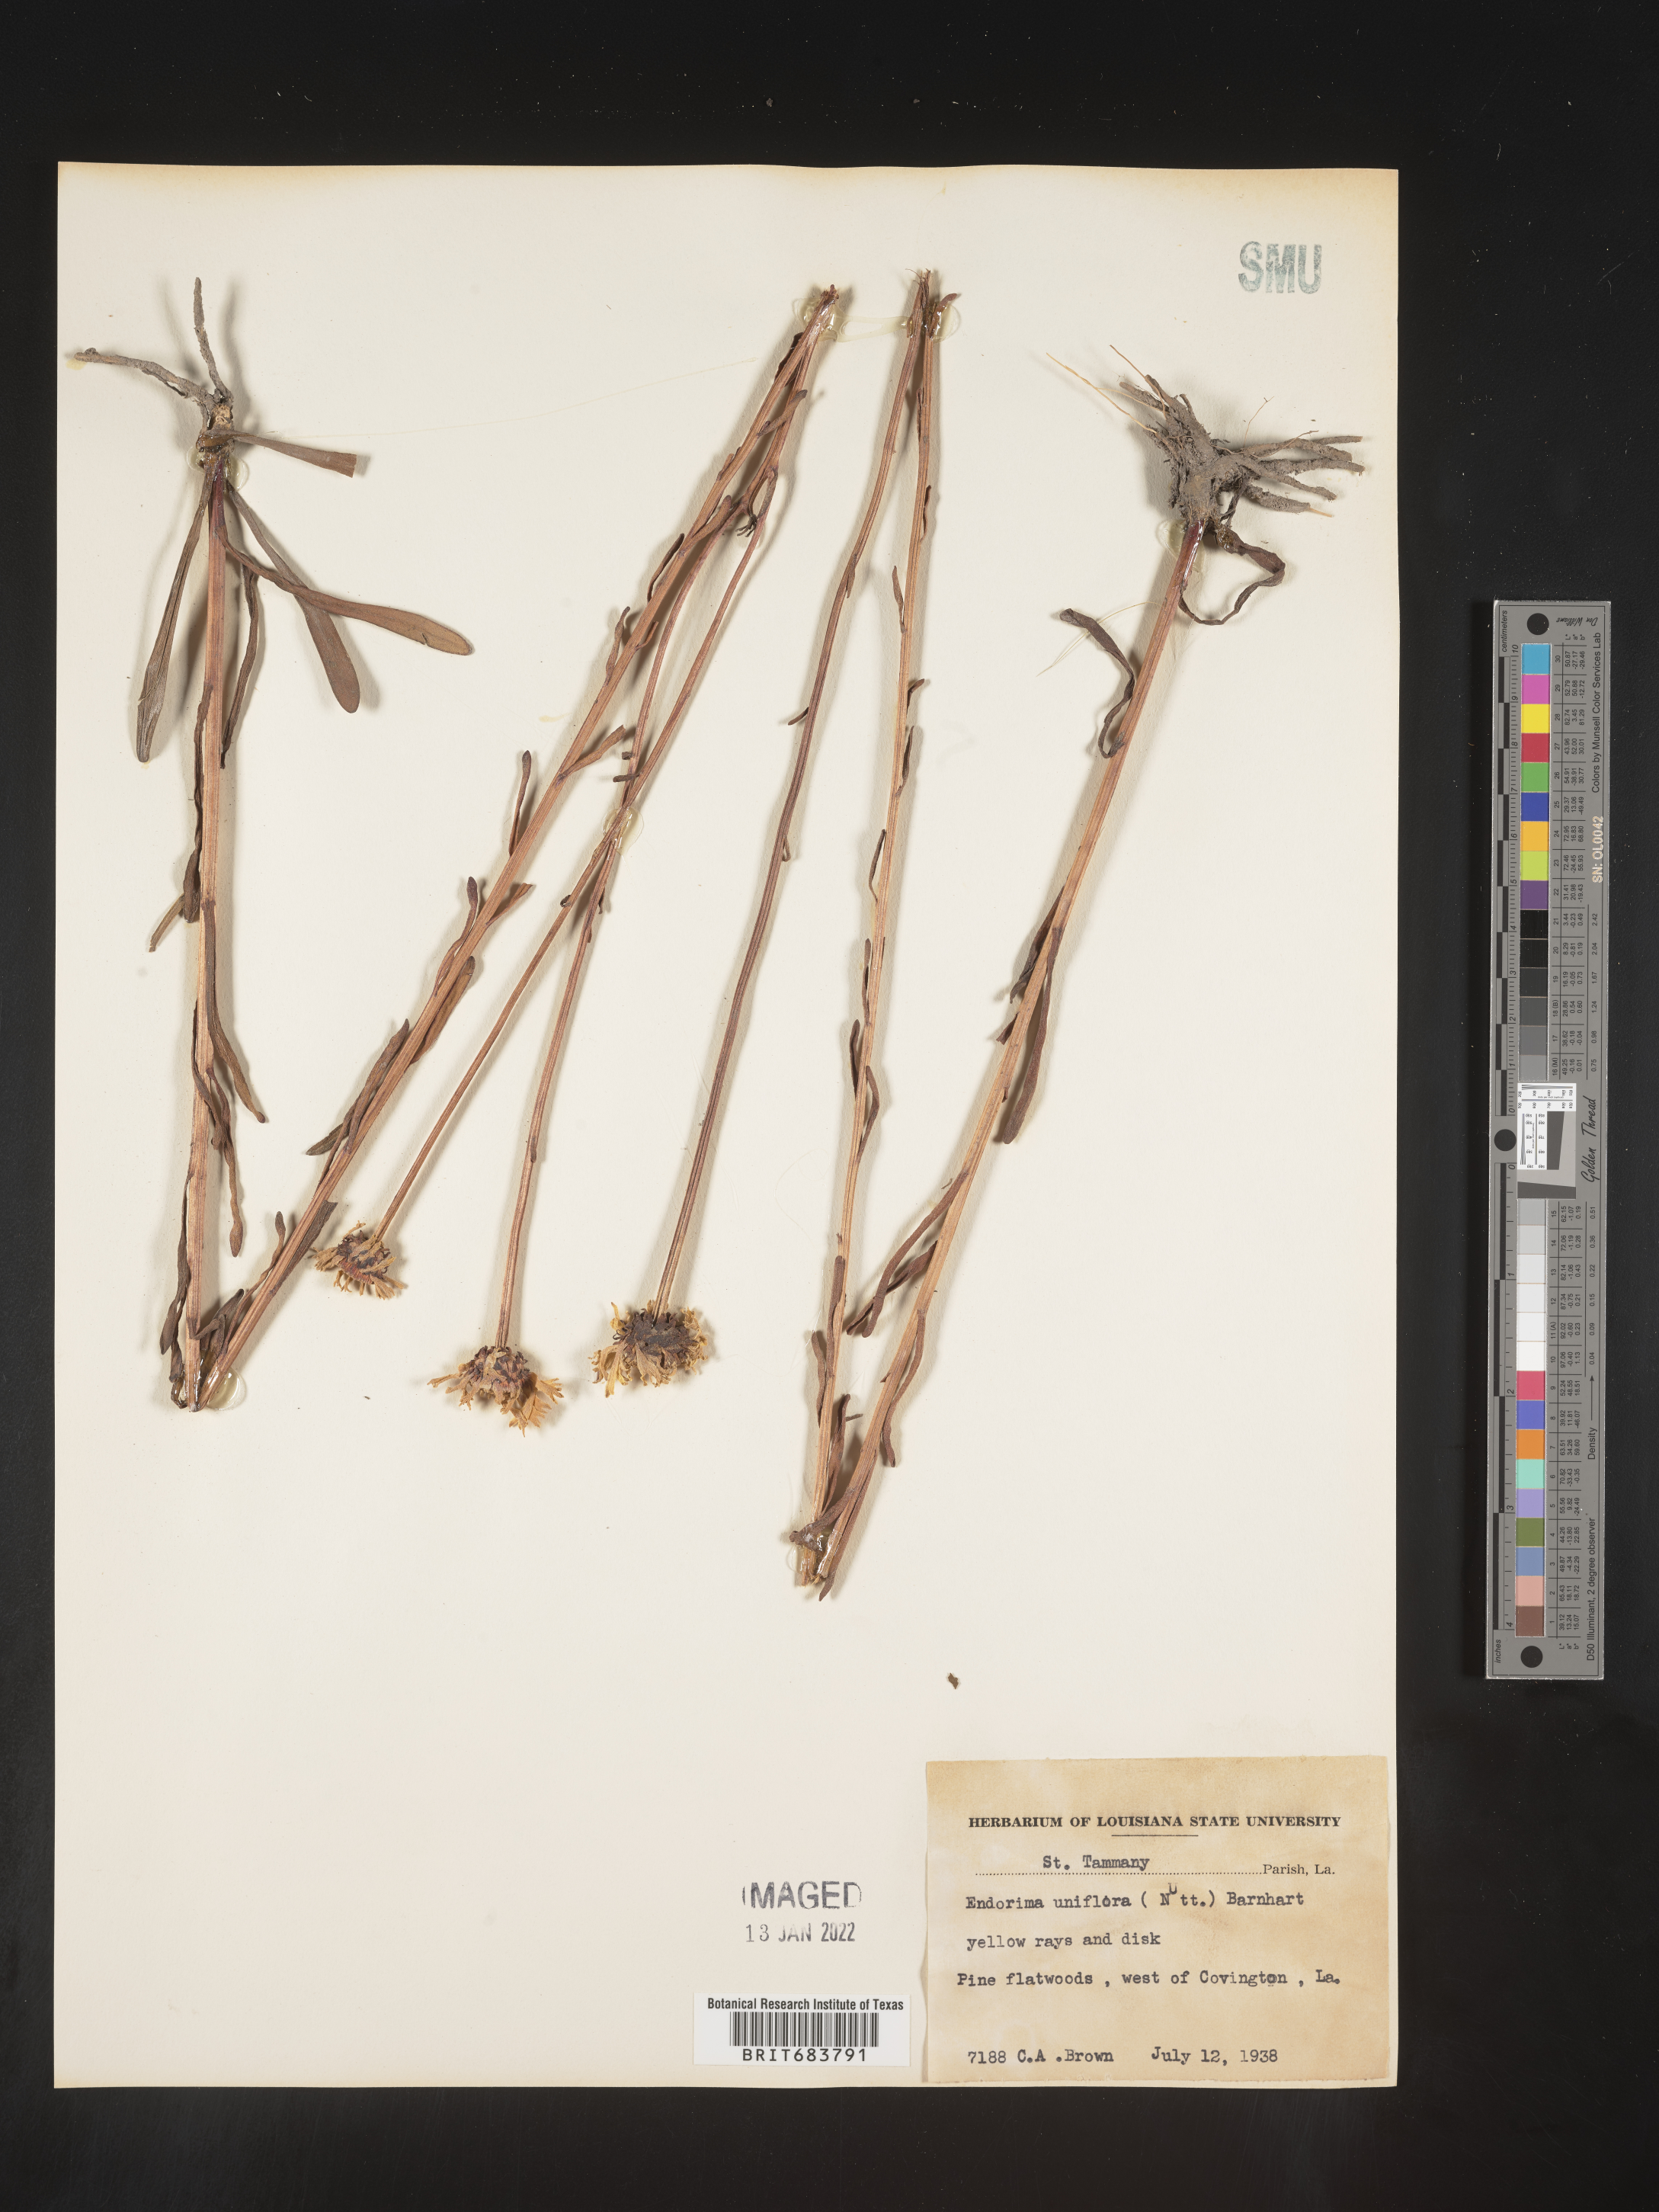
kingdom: Plantae
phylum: Tracheophyta
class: Magnoliopsida
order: Asterales
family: Asteraceae
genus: Balduina
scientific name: Balduina uniflora
